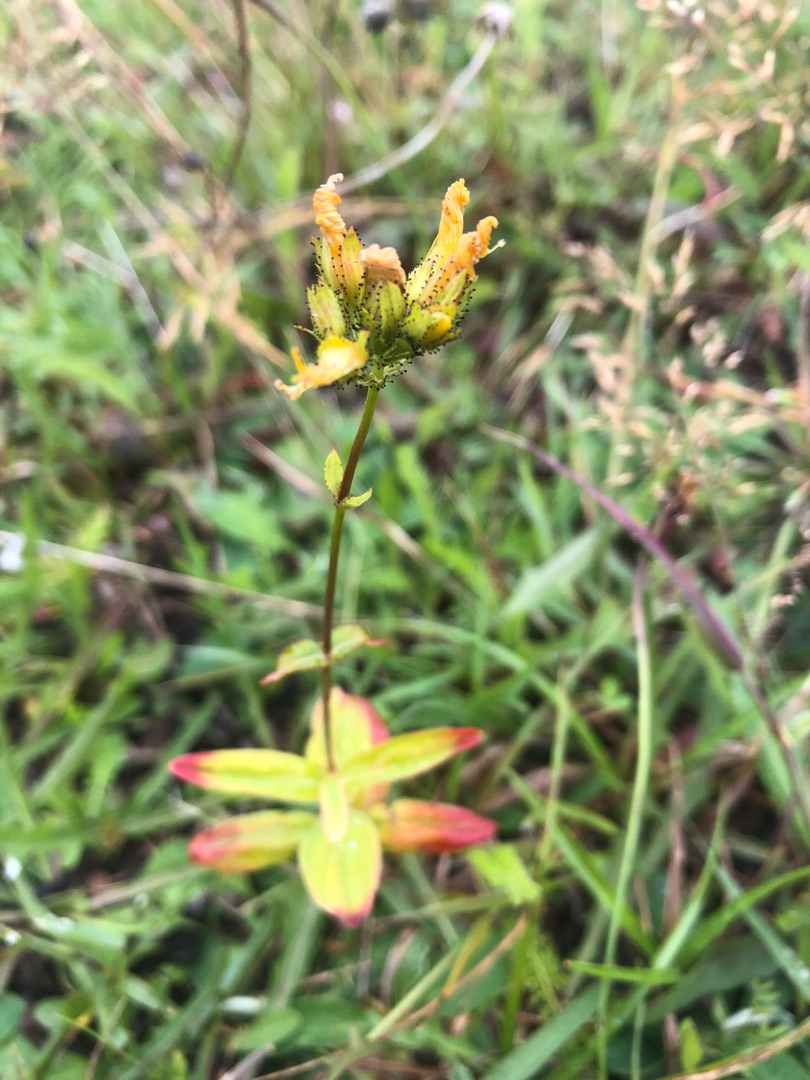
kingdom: Plantae
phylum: Tracheophyta
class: Magnoliopsida
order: Malpighiales
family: Hypericaceae
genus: Hypericum
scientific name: Hypericum montanum
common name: Bjerg-perikon
